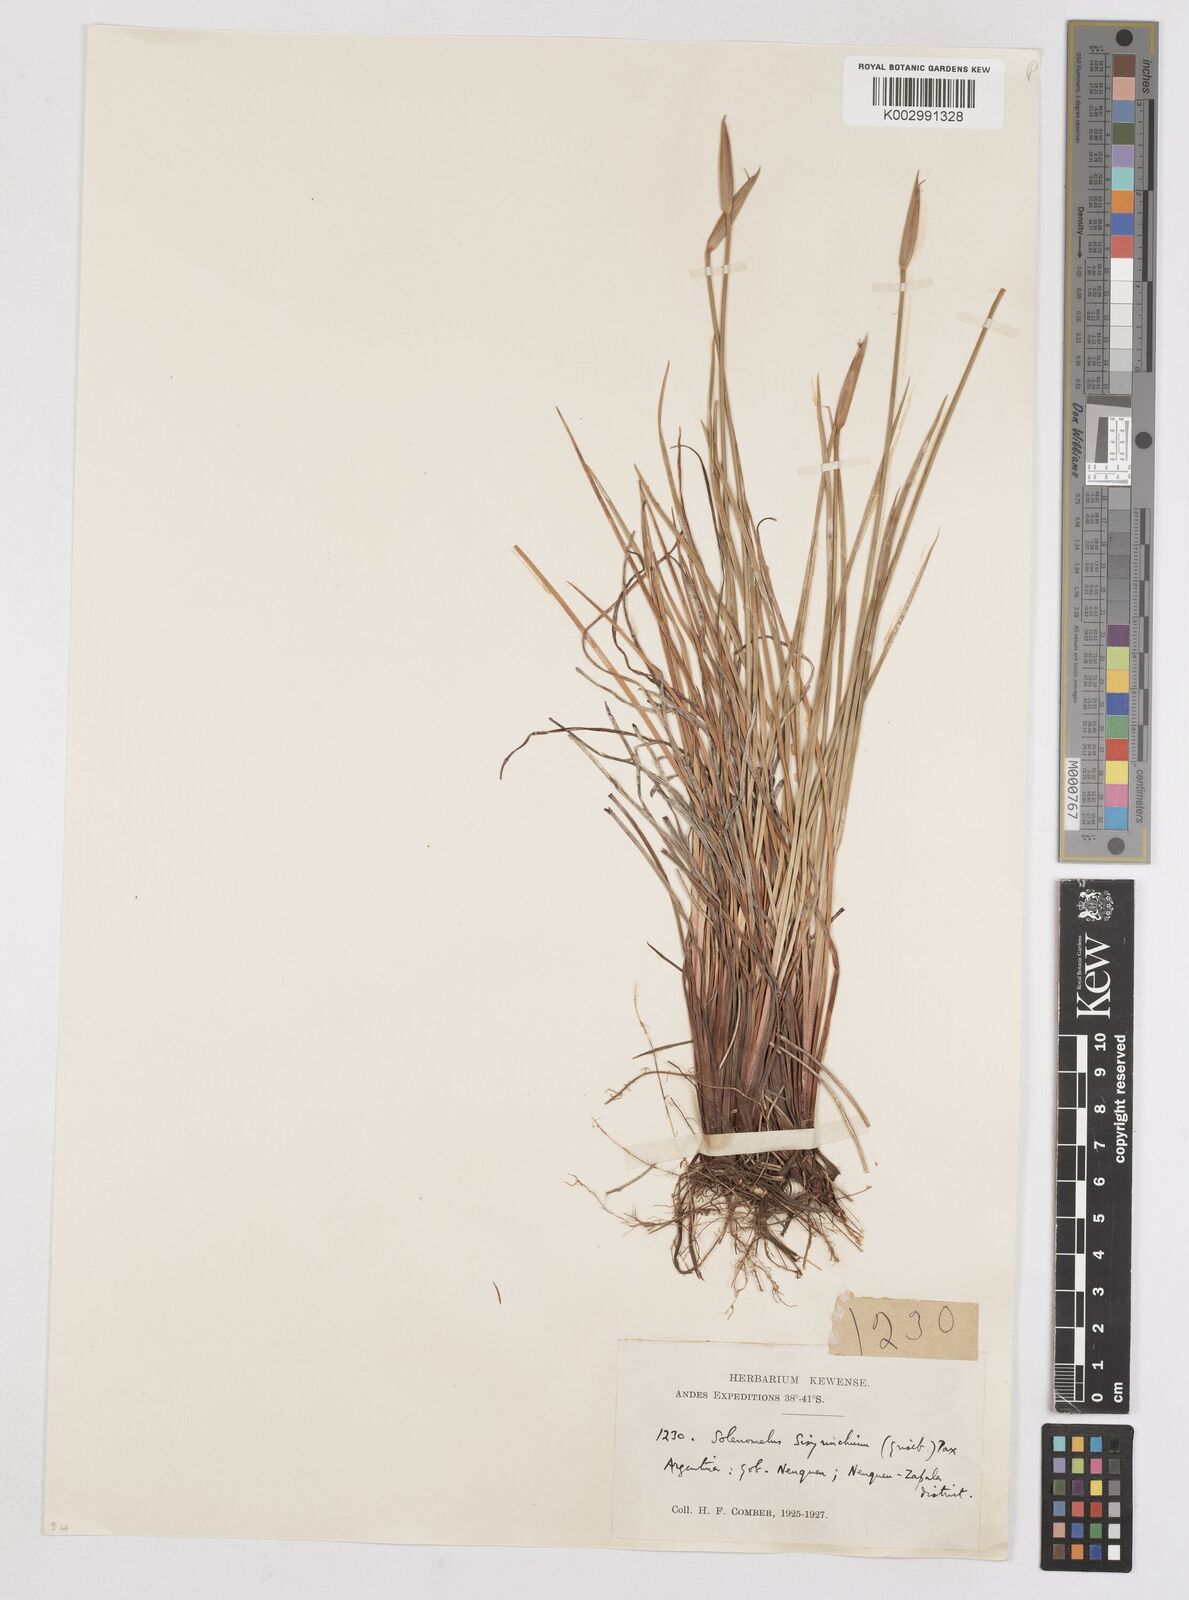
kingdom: Plantae
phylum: Tracheophyta
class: Liliopsida
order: Asparagales
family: Iridaceae
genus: Solenomelus
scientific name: Solenomelus segethi
